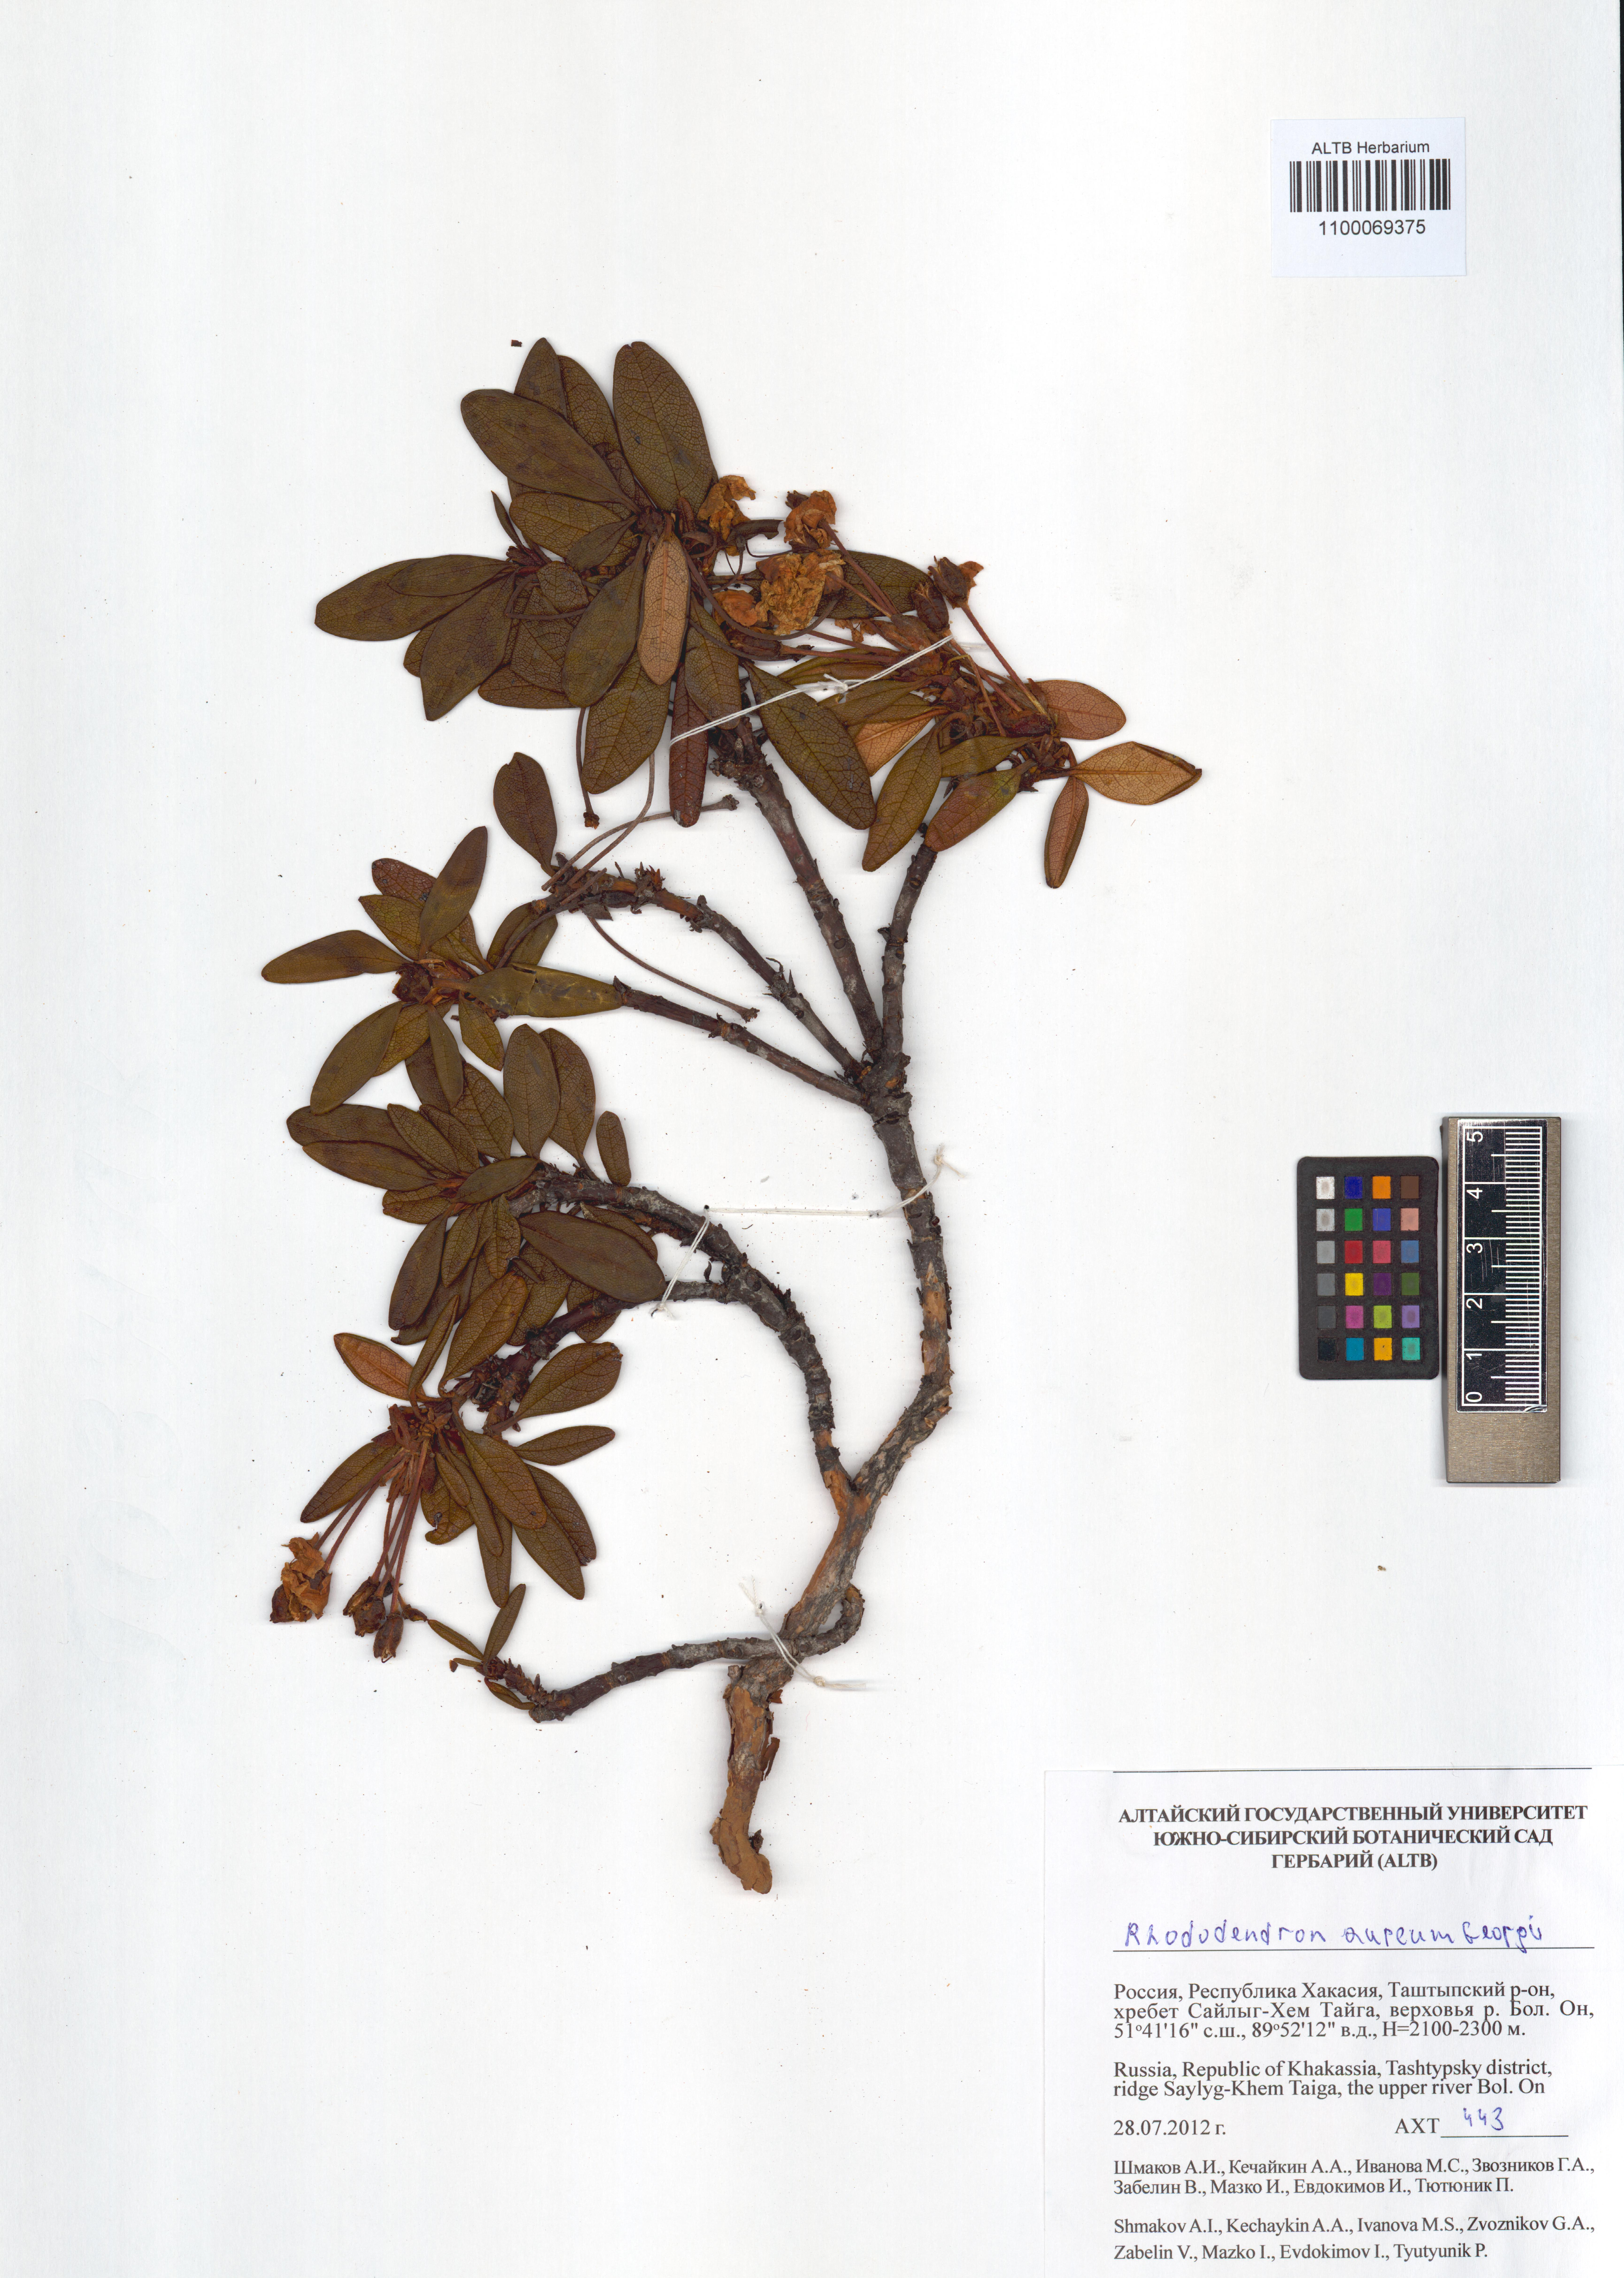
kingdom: Plantae
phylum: Tracheophyta
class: Magnoliopsida
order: Ericales
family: Ericaceae
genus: Rhododendron
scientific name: Rhododendron aureum
